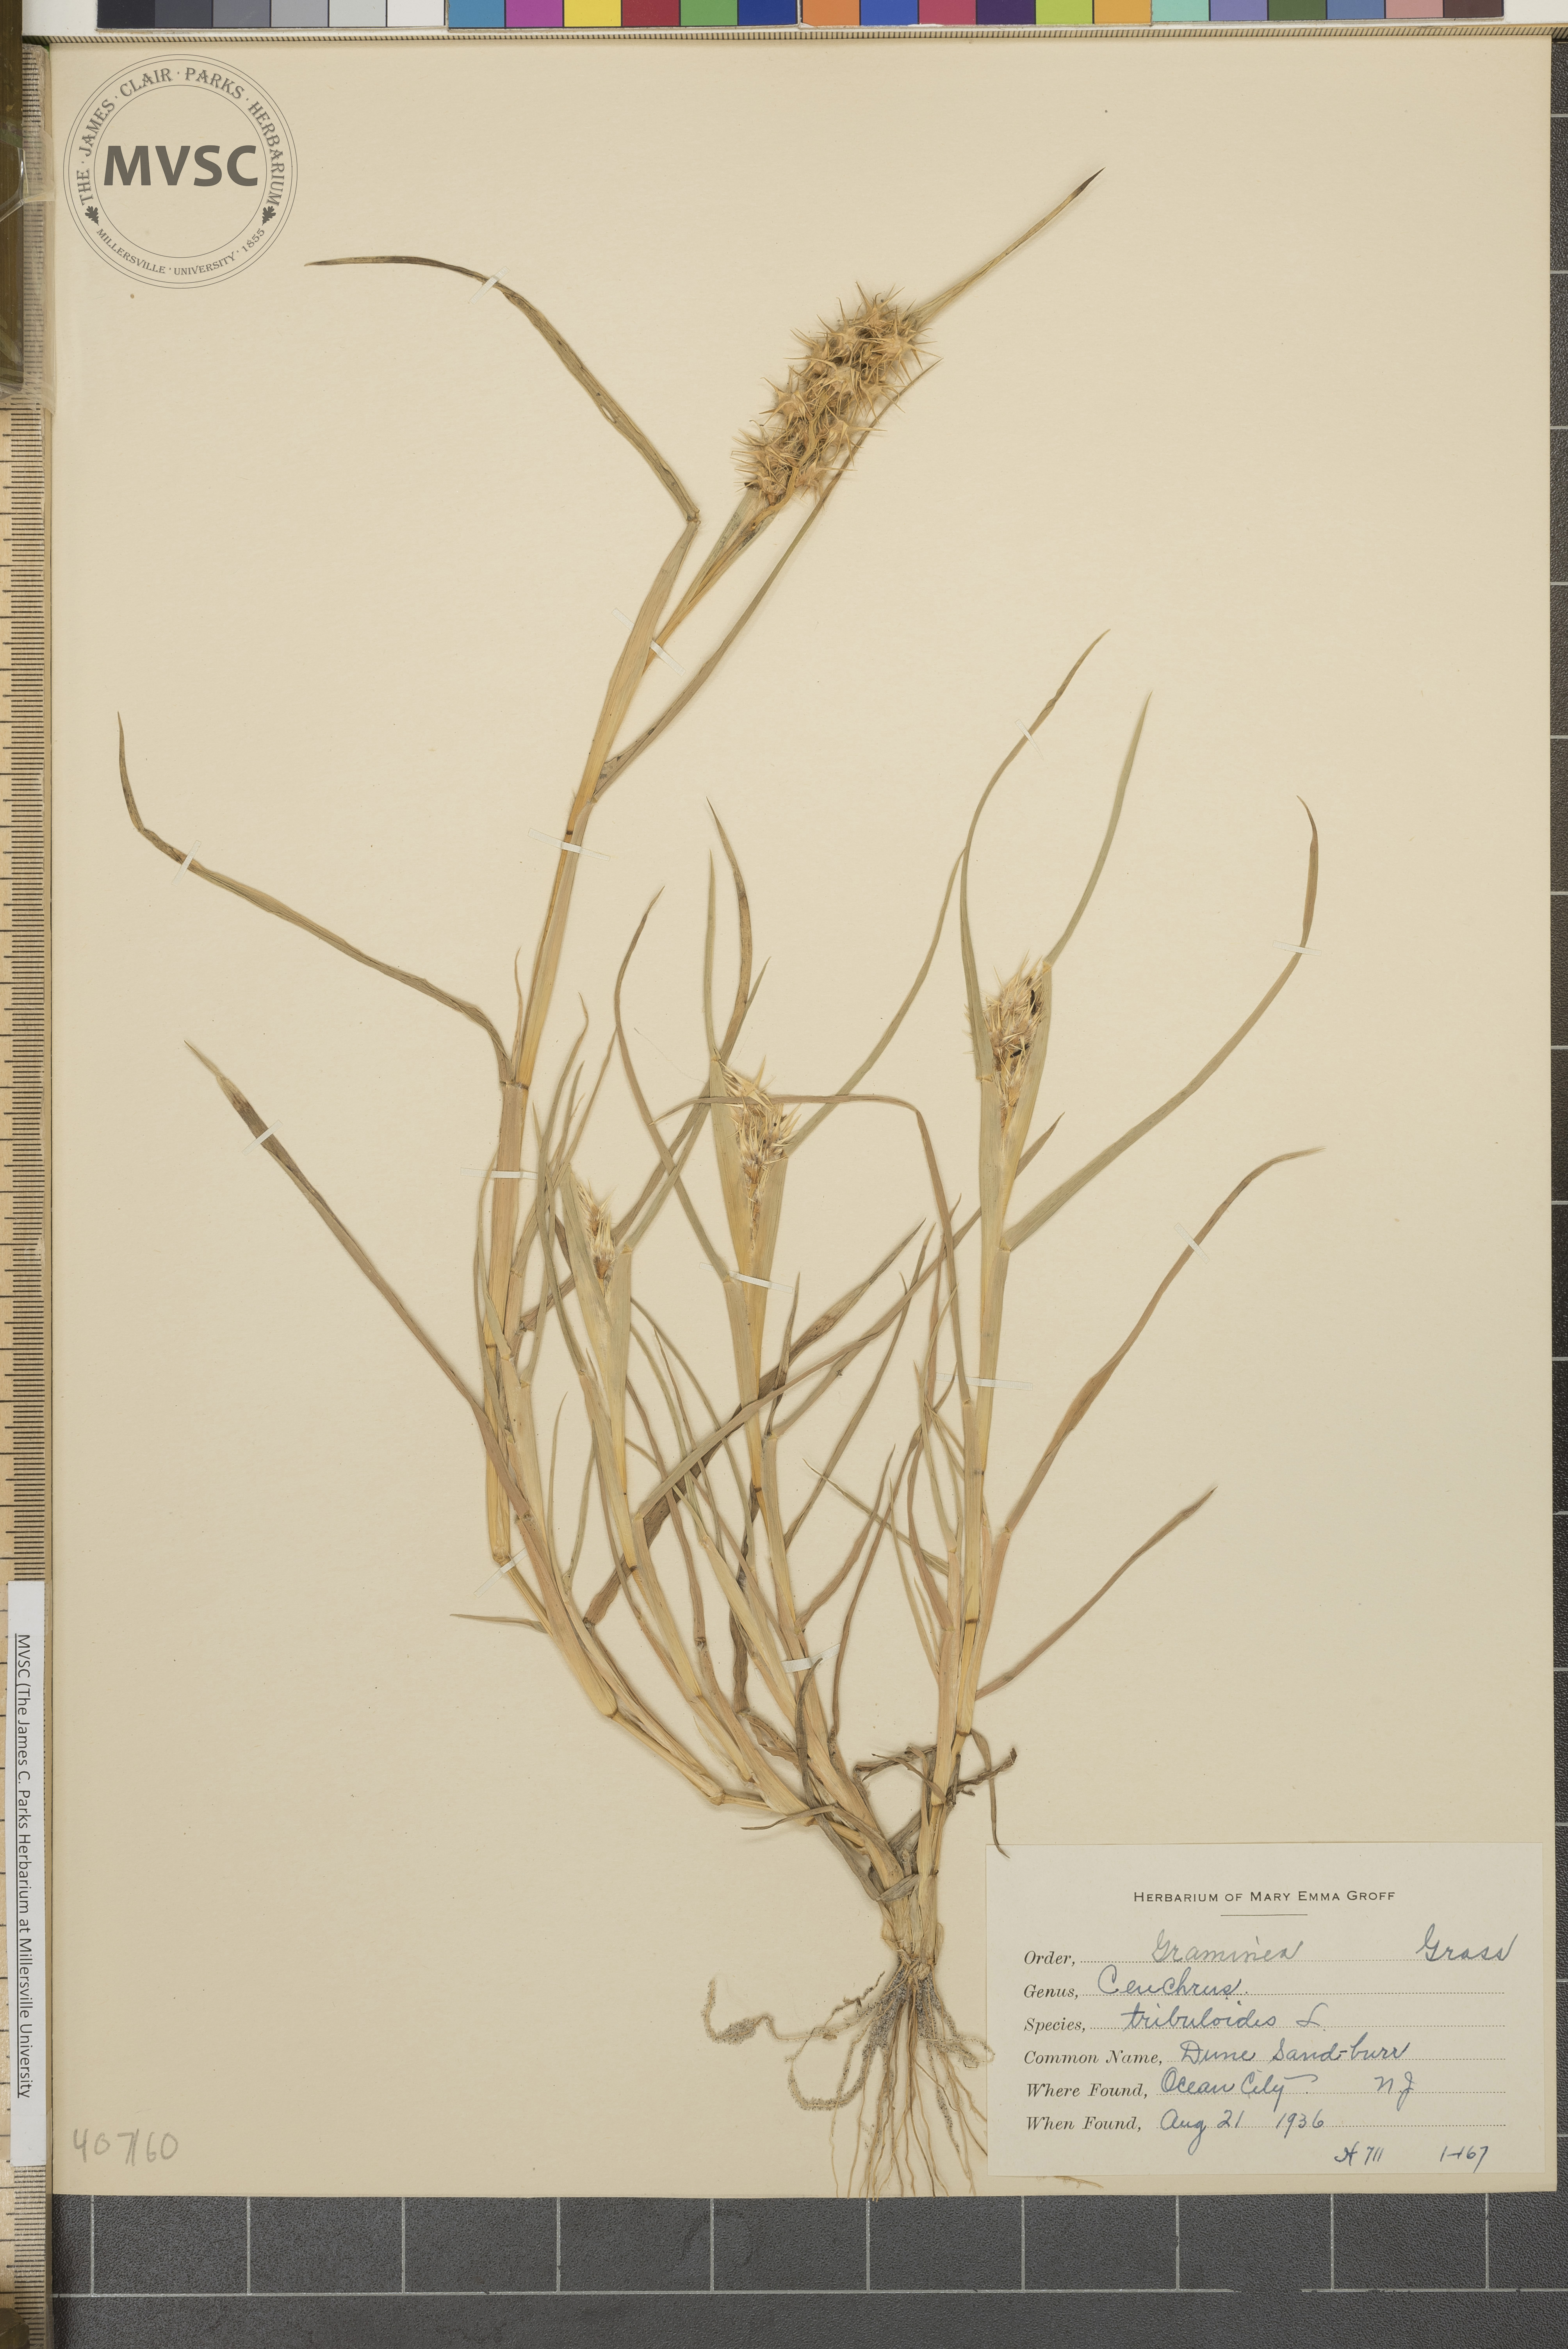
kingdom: Plantae
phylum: Tracheophyta
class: Liliopsida
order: Poales
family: Poaceae
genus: Cenchrus
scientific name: Cenchrus tribuloides
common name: Dune sandbur
